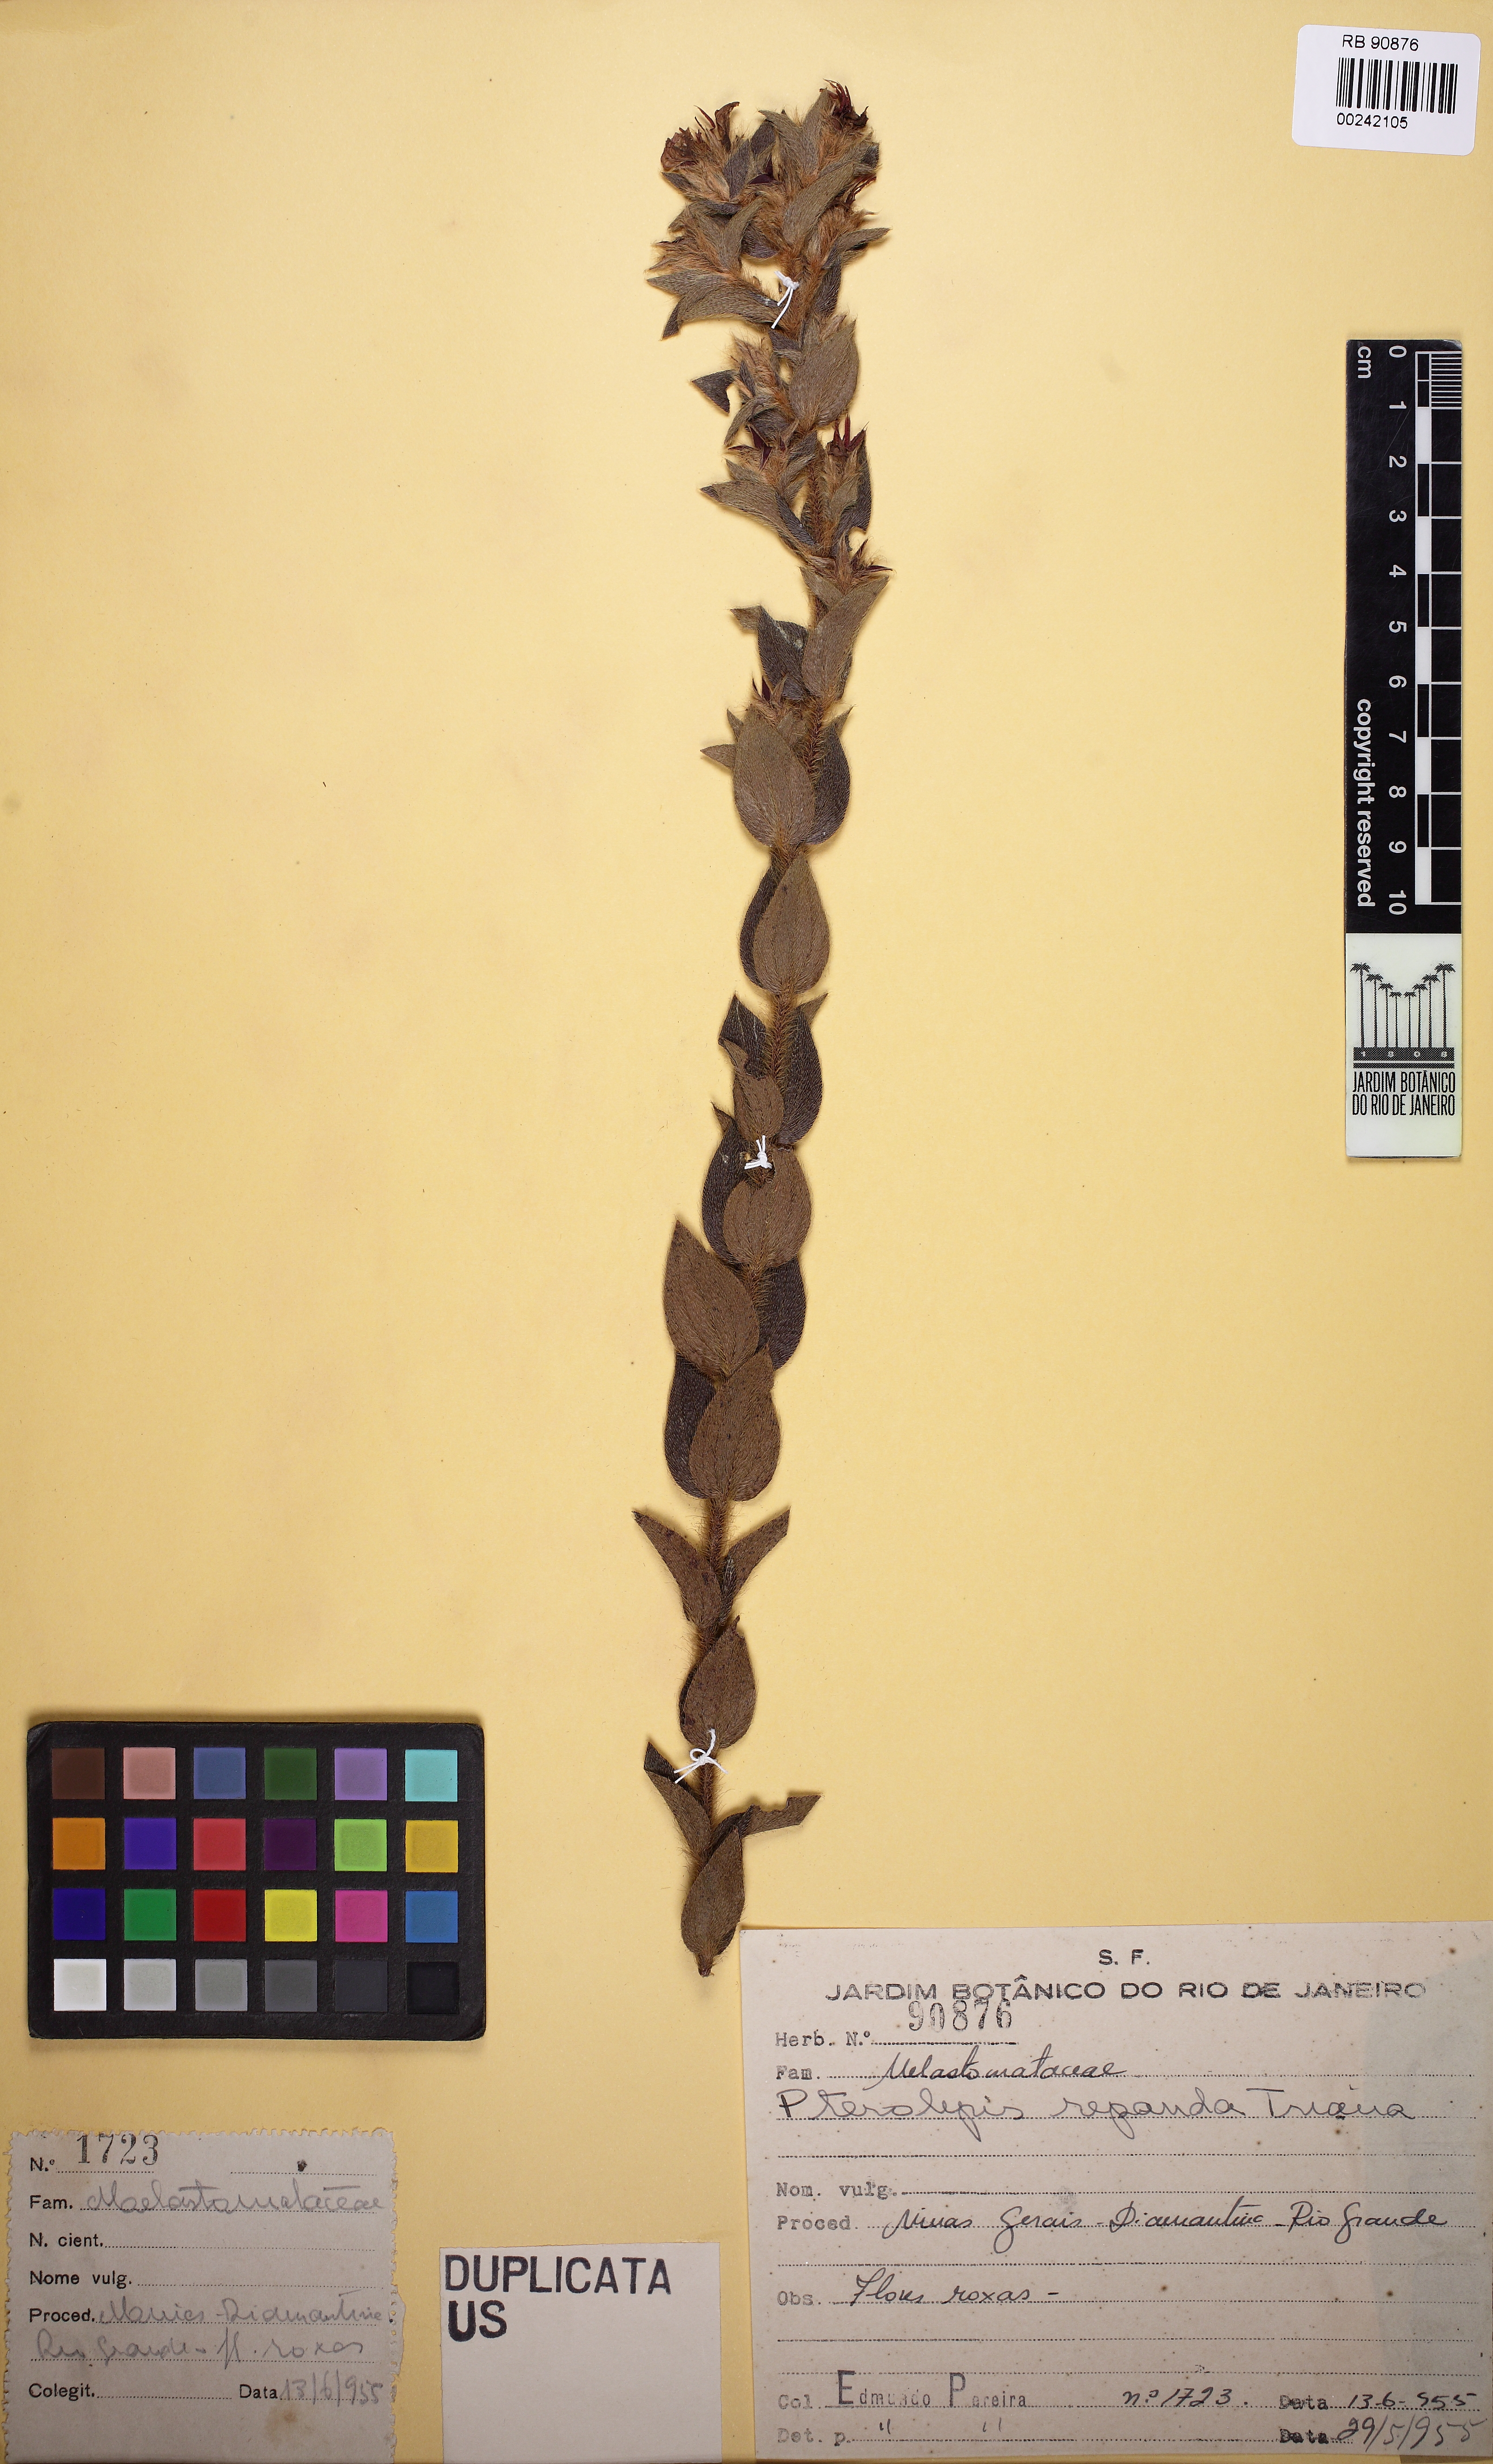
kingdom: Plantae
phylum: Tracheophyta
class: Magnoliopsida
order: Myrtales
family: Melastomataceae
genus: Pterolepis
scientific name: Pterolepis repanda
